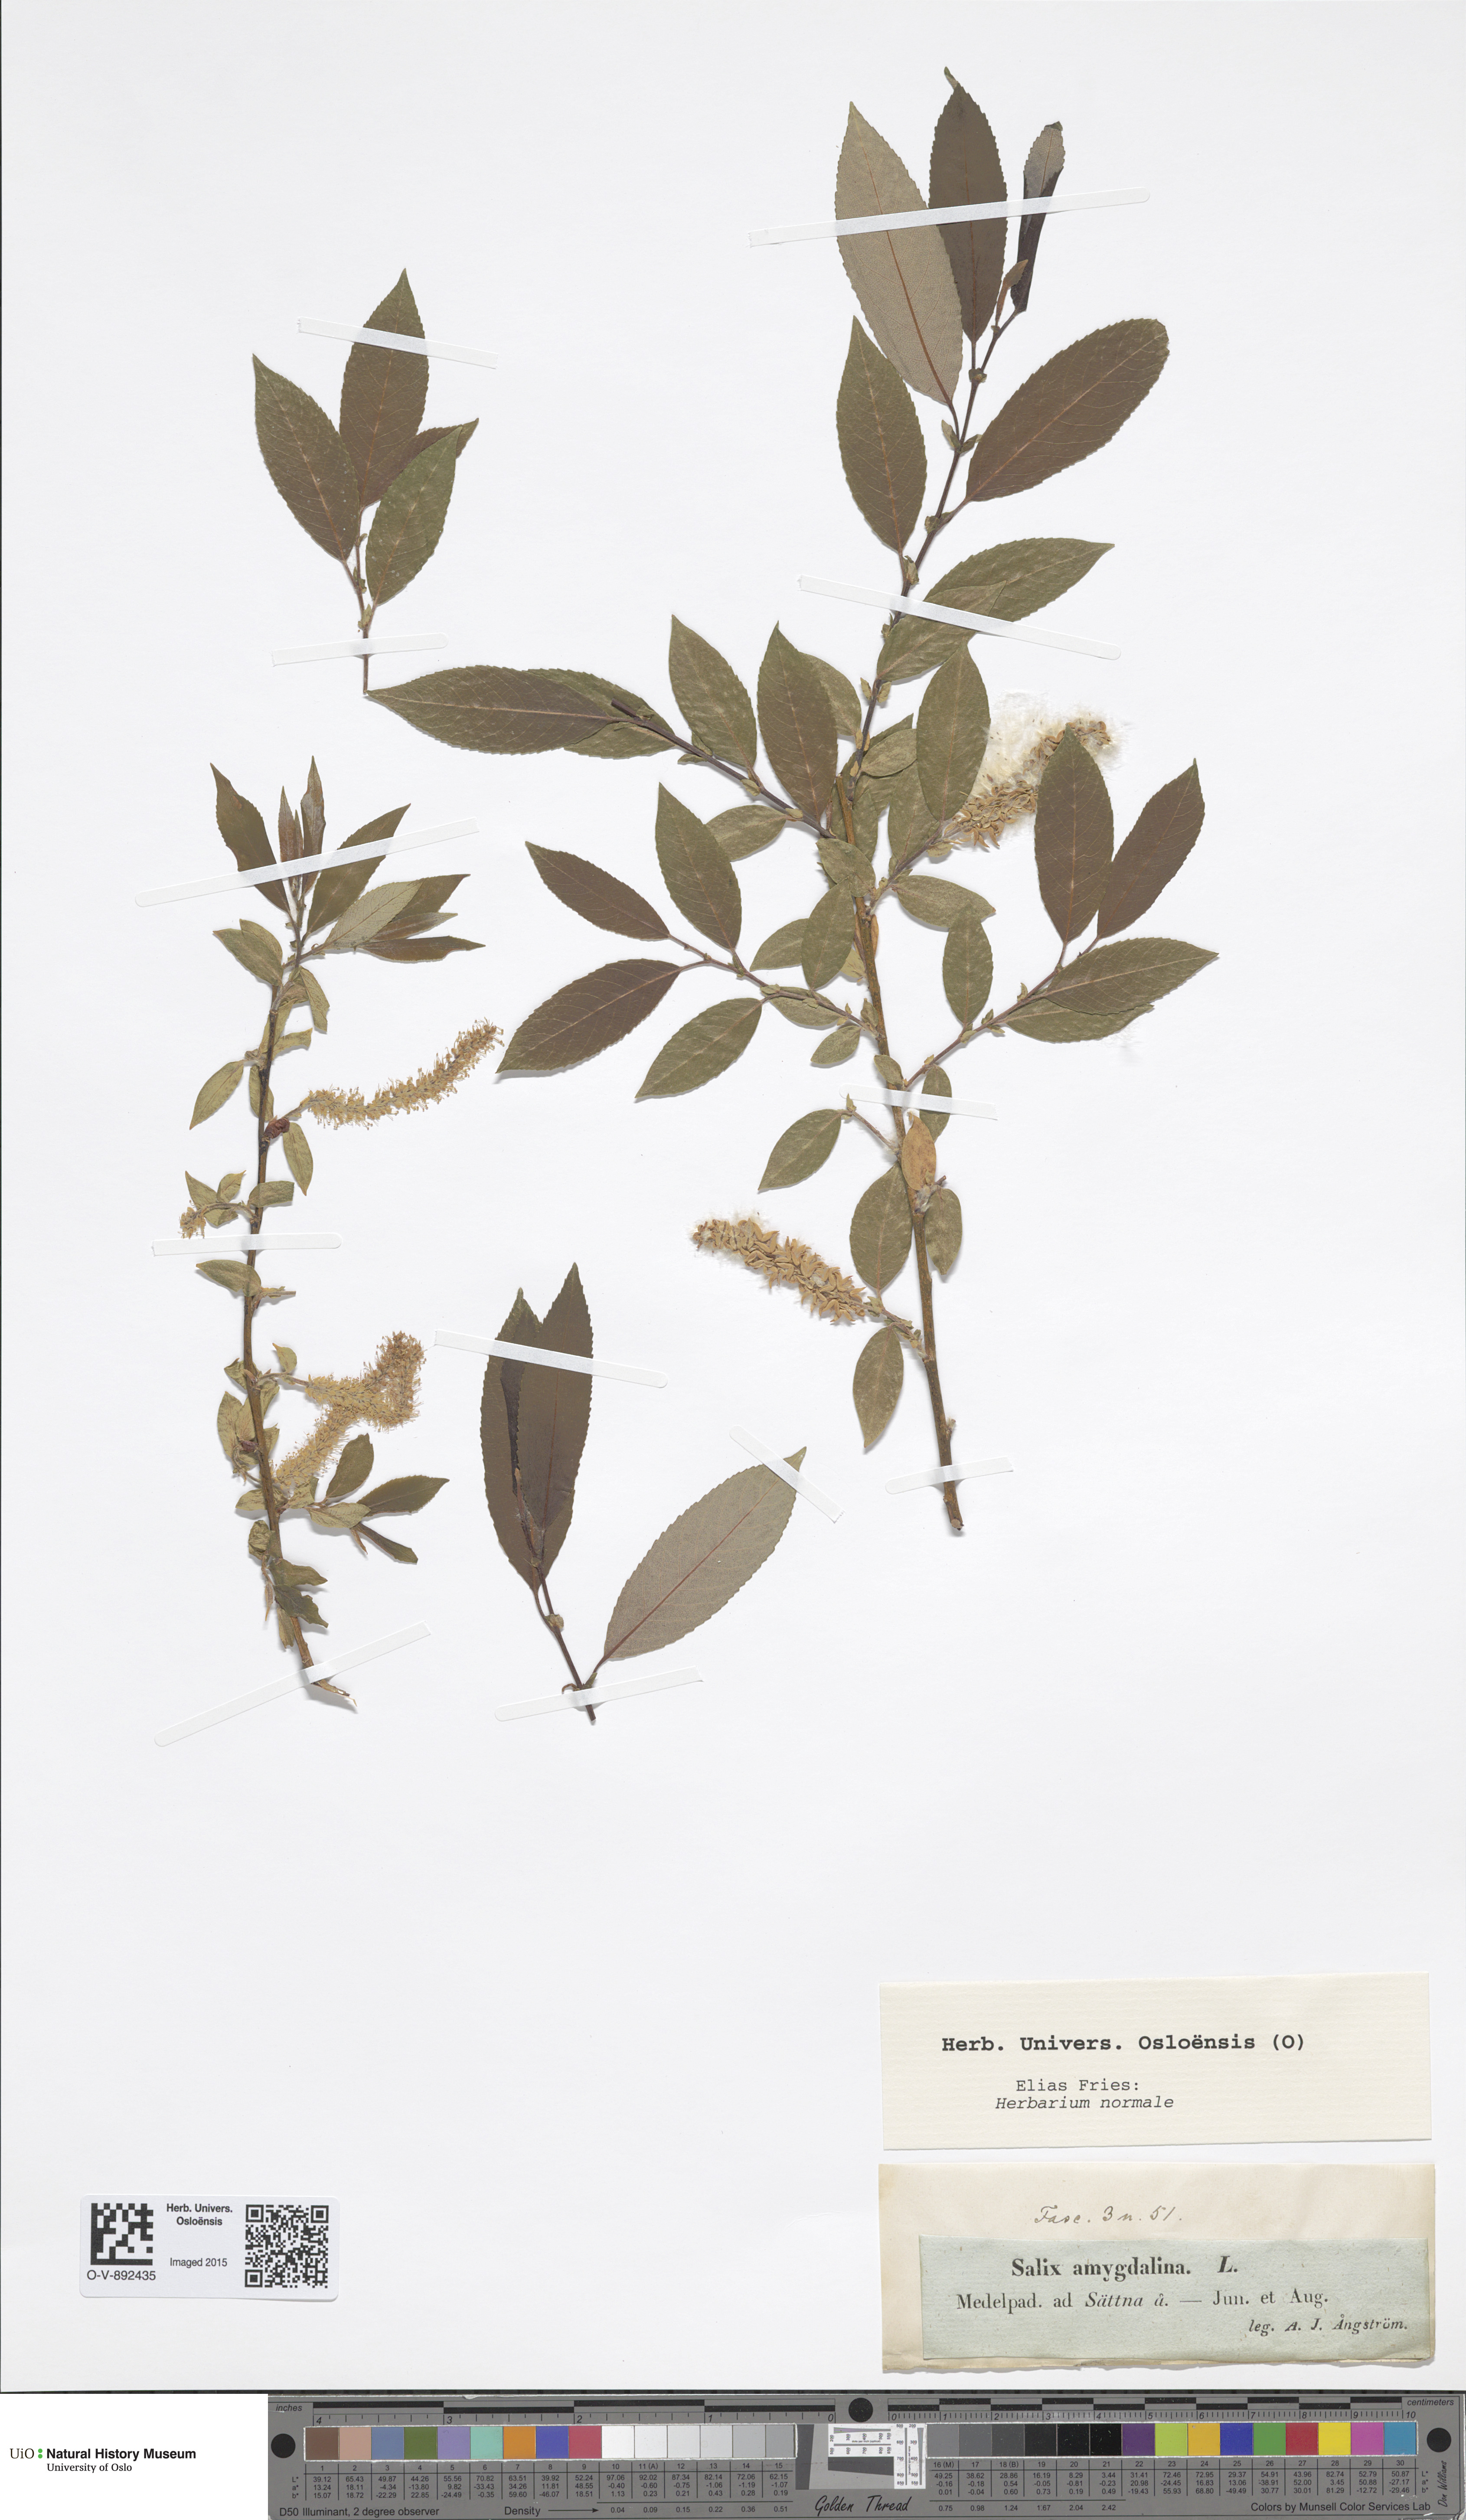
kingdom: Plantae
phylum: Tracheophyta
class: Magnoliopsida
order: Malpighiales
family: Salicaceae
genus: Salix
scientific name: Salix triandra
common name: Almond willow
